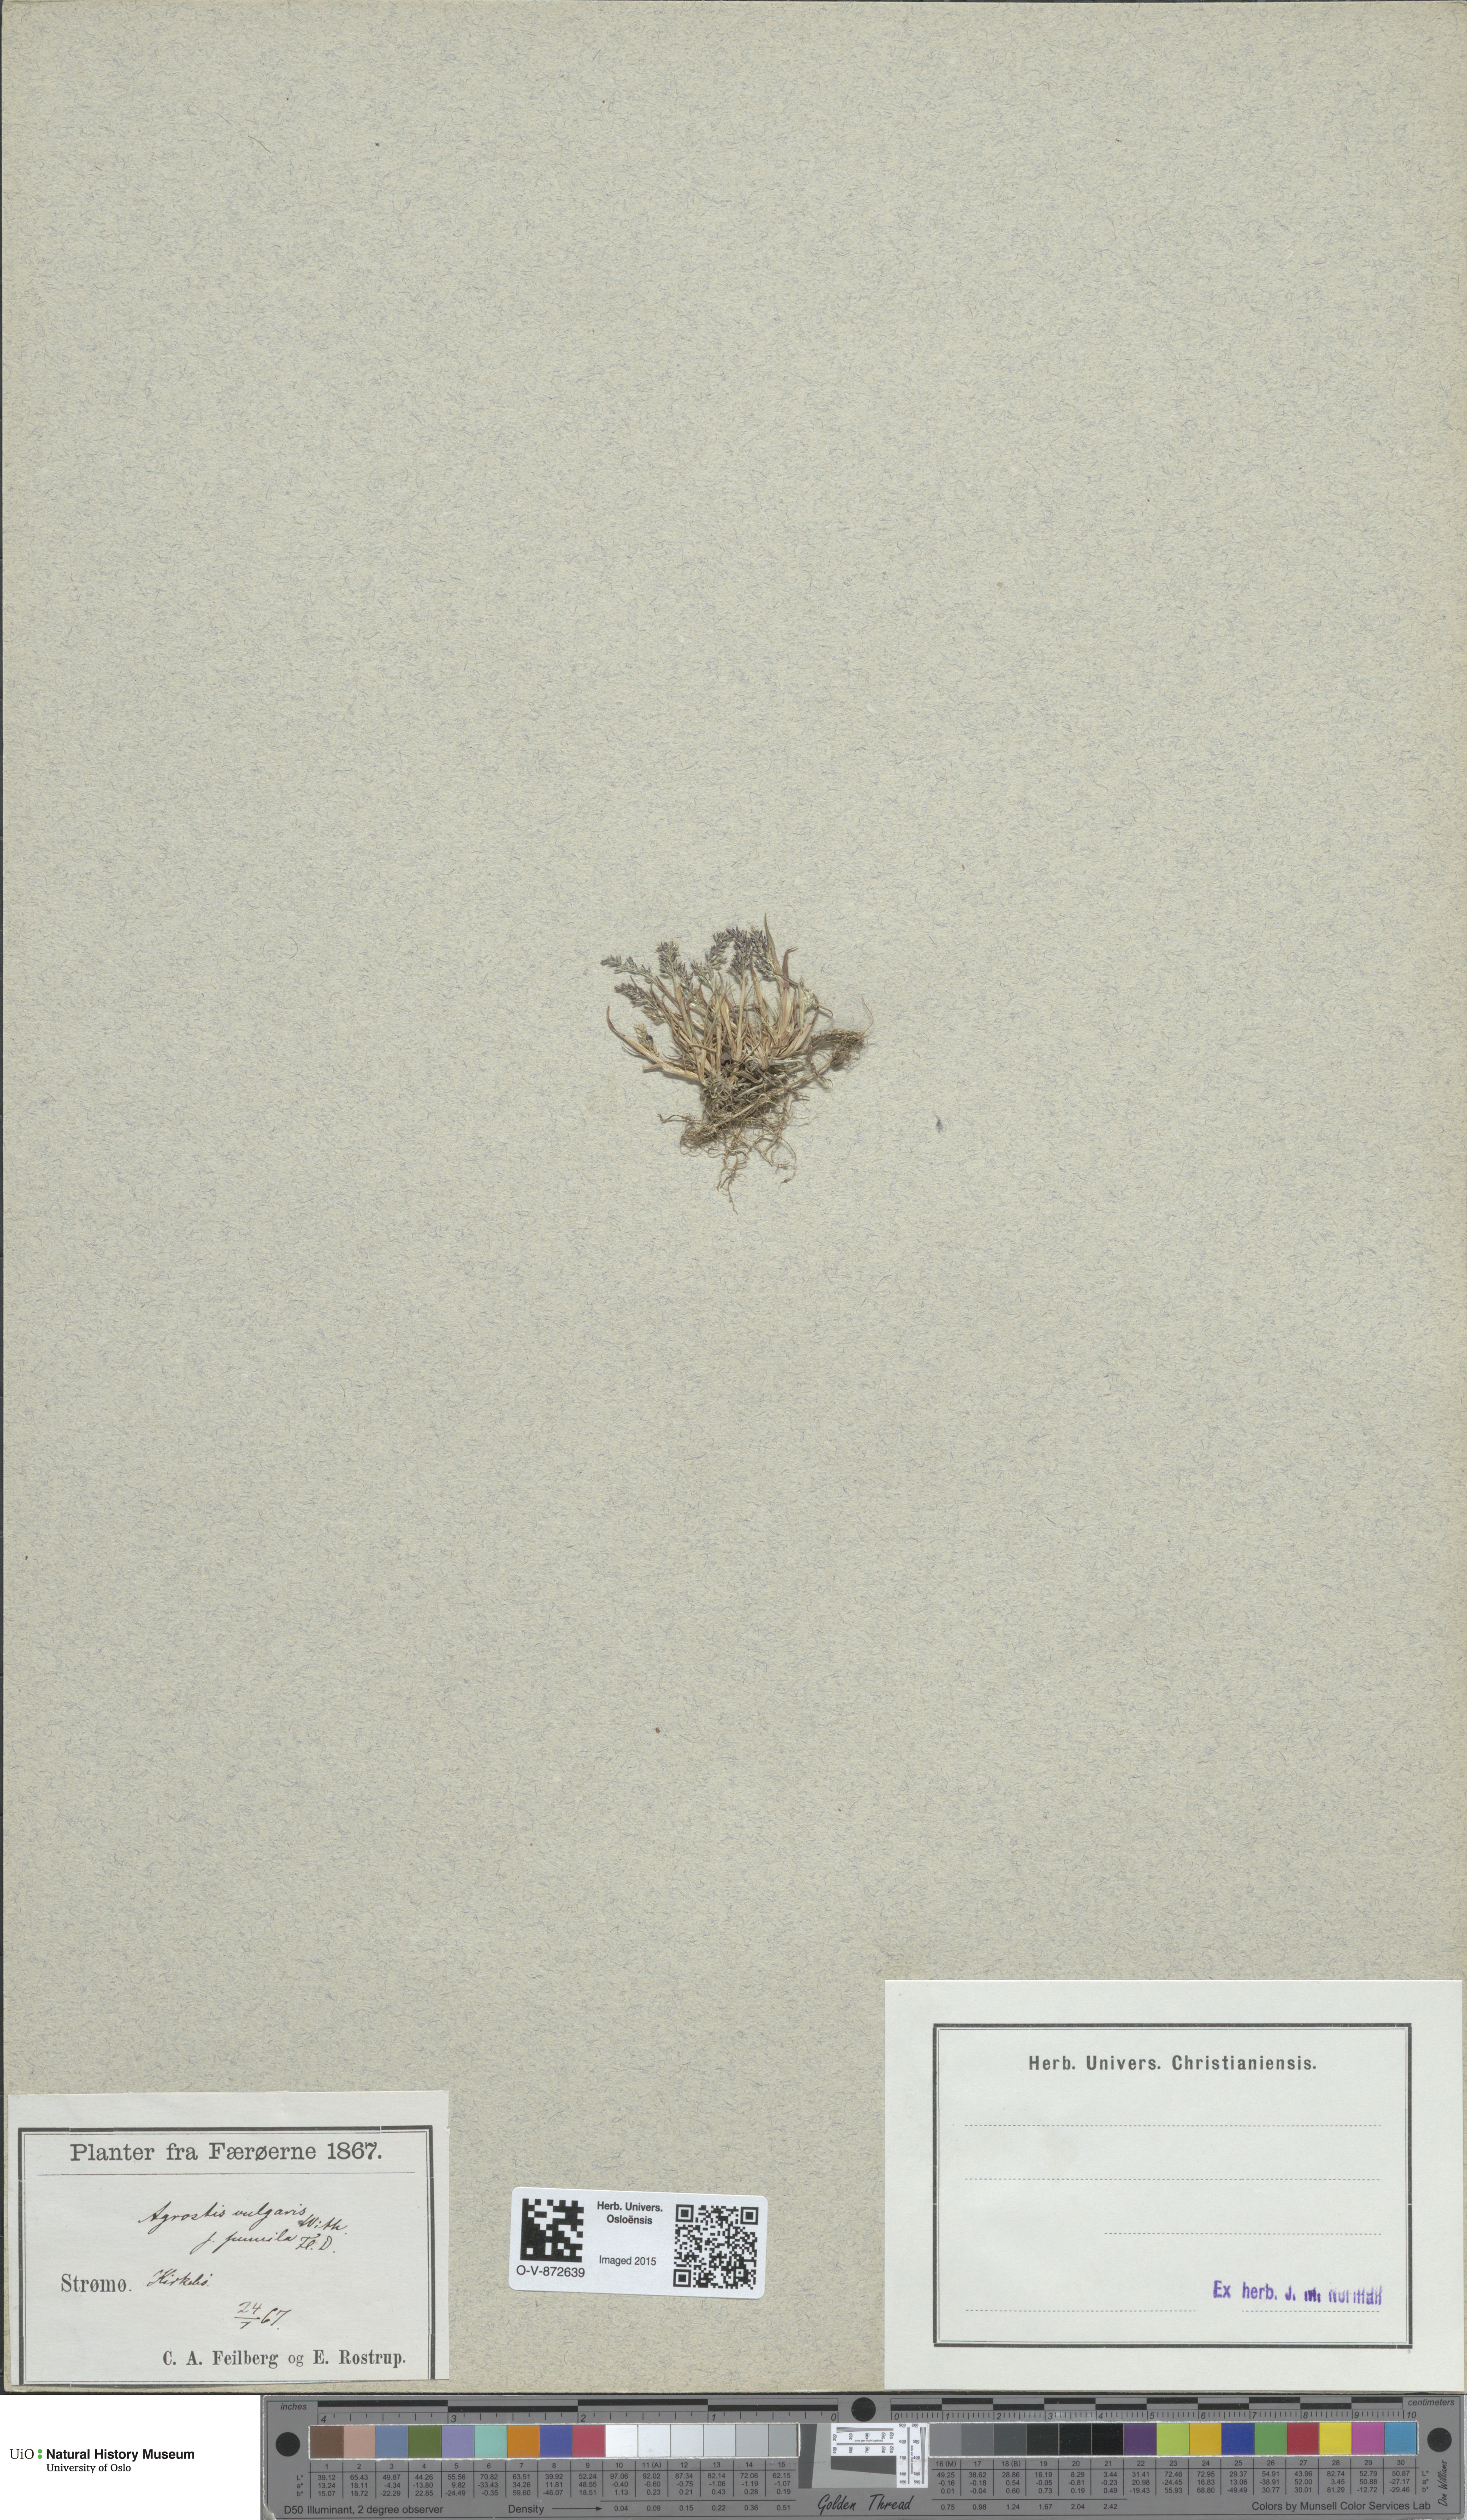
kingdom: Plantae
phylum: Tracheophyta
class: Liliopsida
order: Poales
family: Poaceae
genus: Agrostis
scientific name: Agrostis capillaris
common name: Colonial bentgrass
